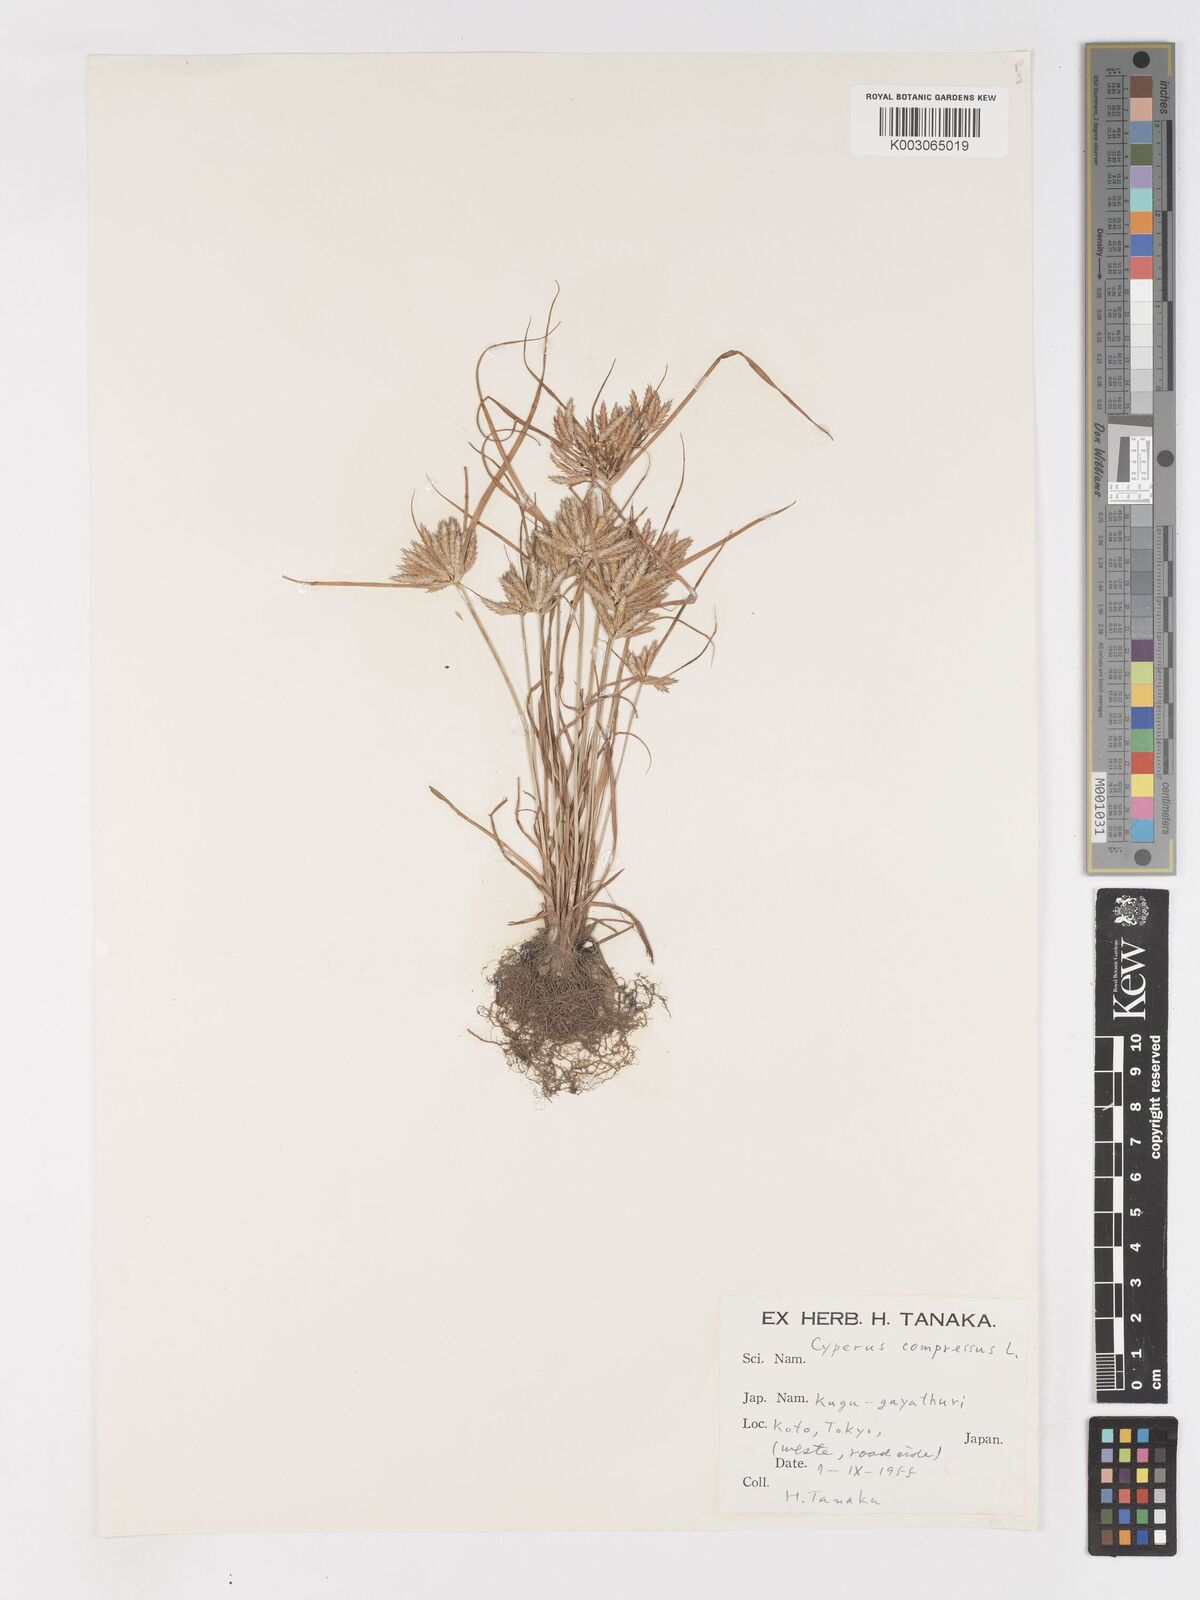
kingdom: Plantae
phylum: Tracheophyta
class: Liliopsida
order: Poales
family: Cyperaceae
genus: Cyperus
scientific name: Cyperus compressus
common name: Poorland flatsedge
